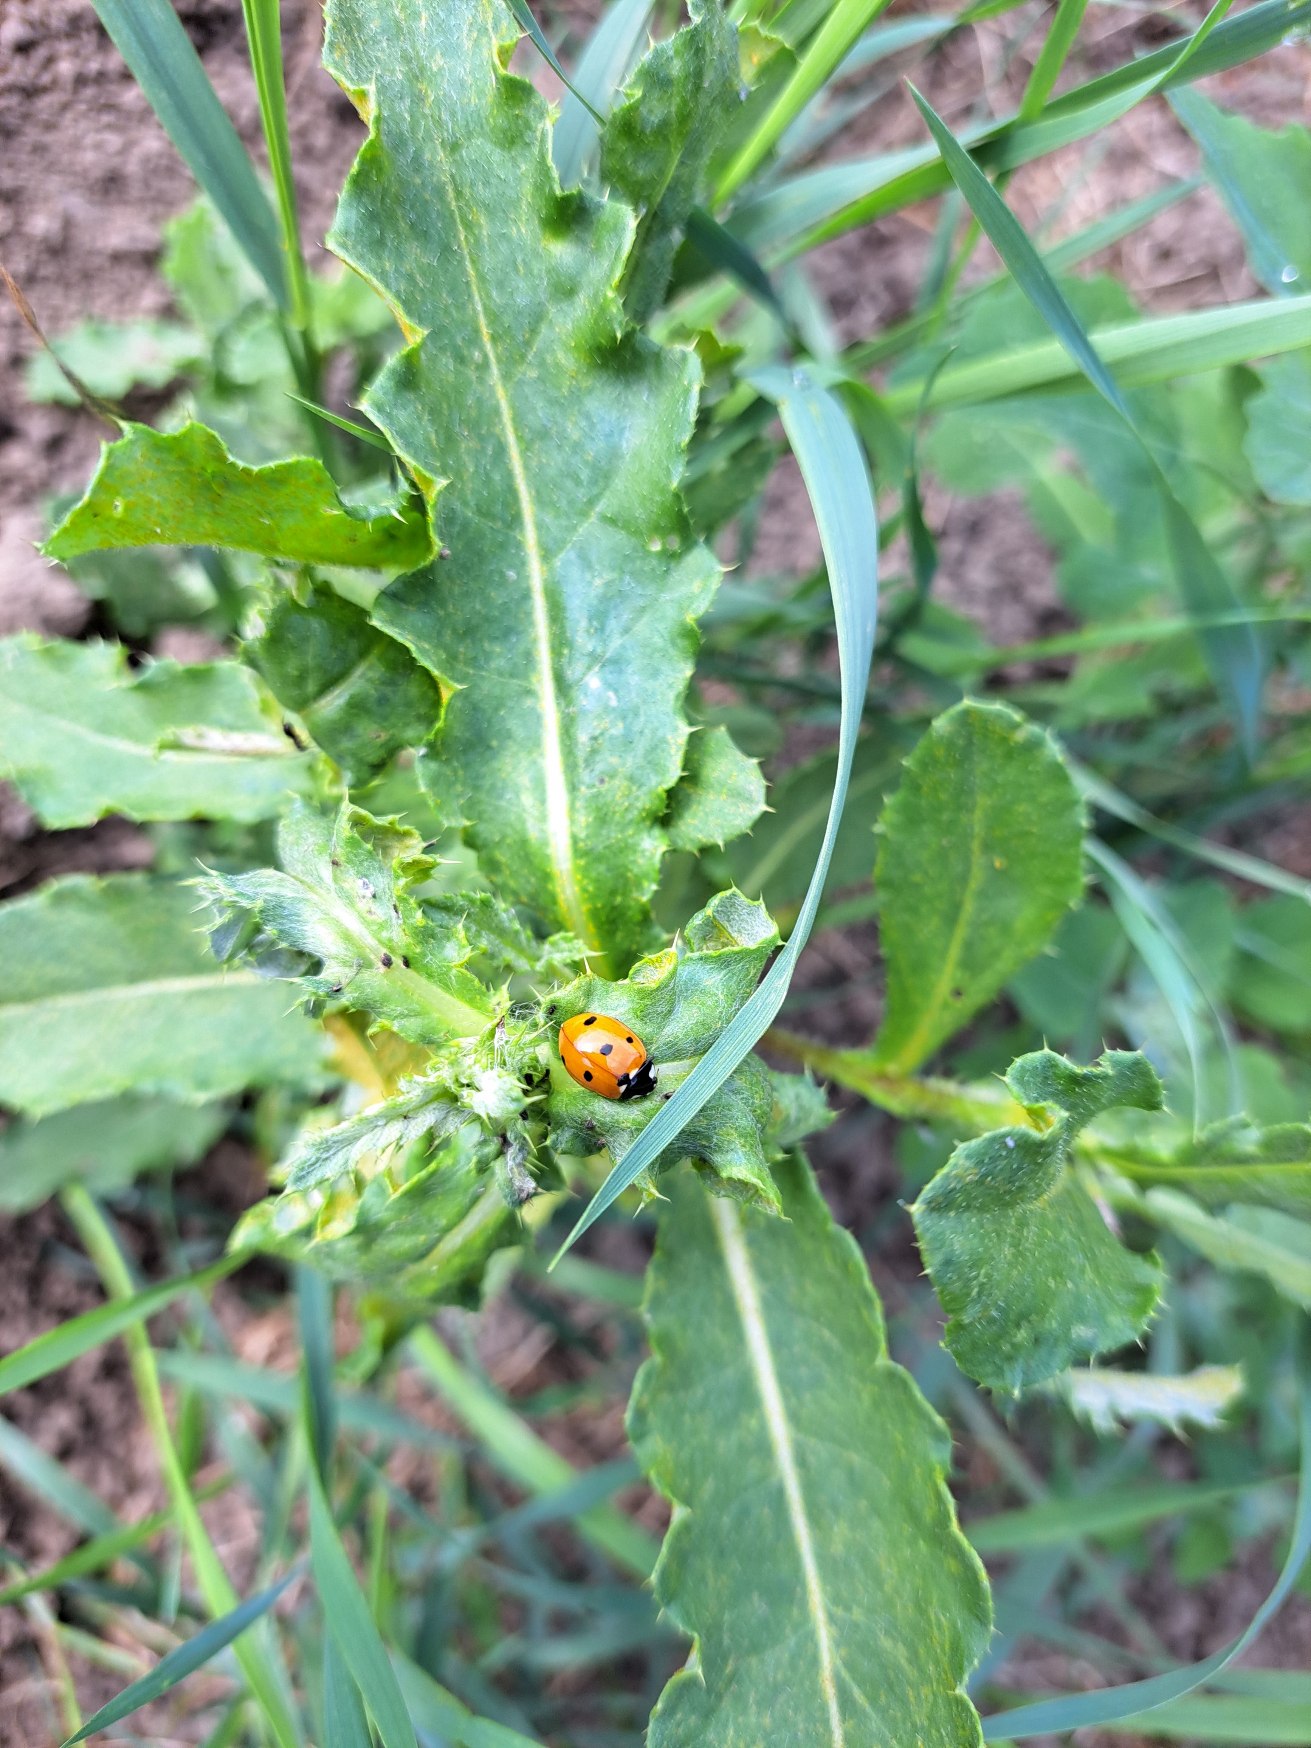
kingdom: Animalia
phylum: Arthropoda
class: Insecta
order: Coleoptera
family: Coccinellidae
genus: Coccinella
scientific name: Coccinella septempunctata
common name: Syvplettet mariehøne
